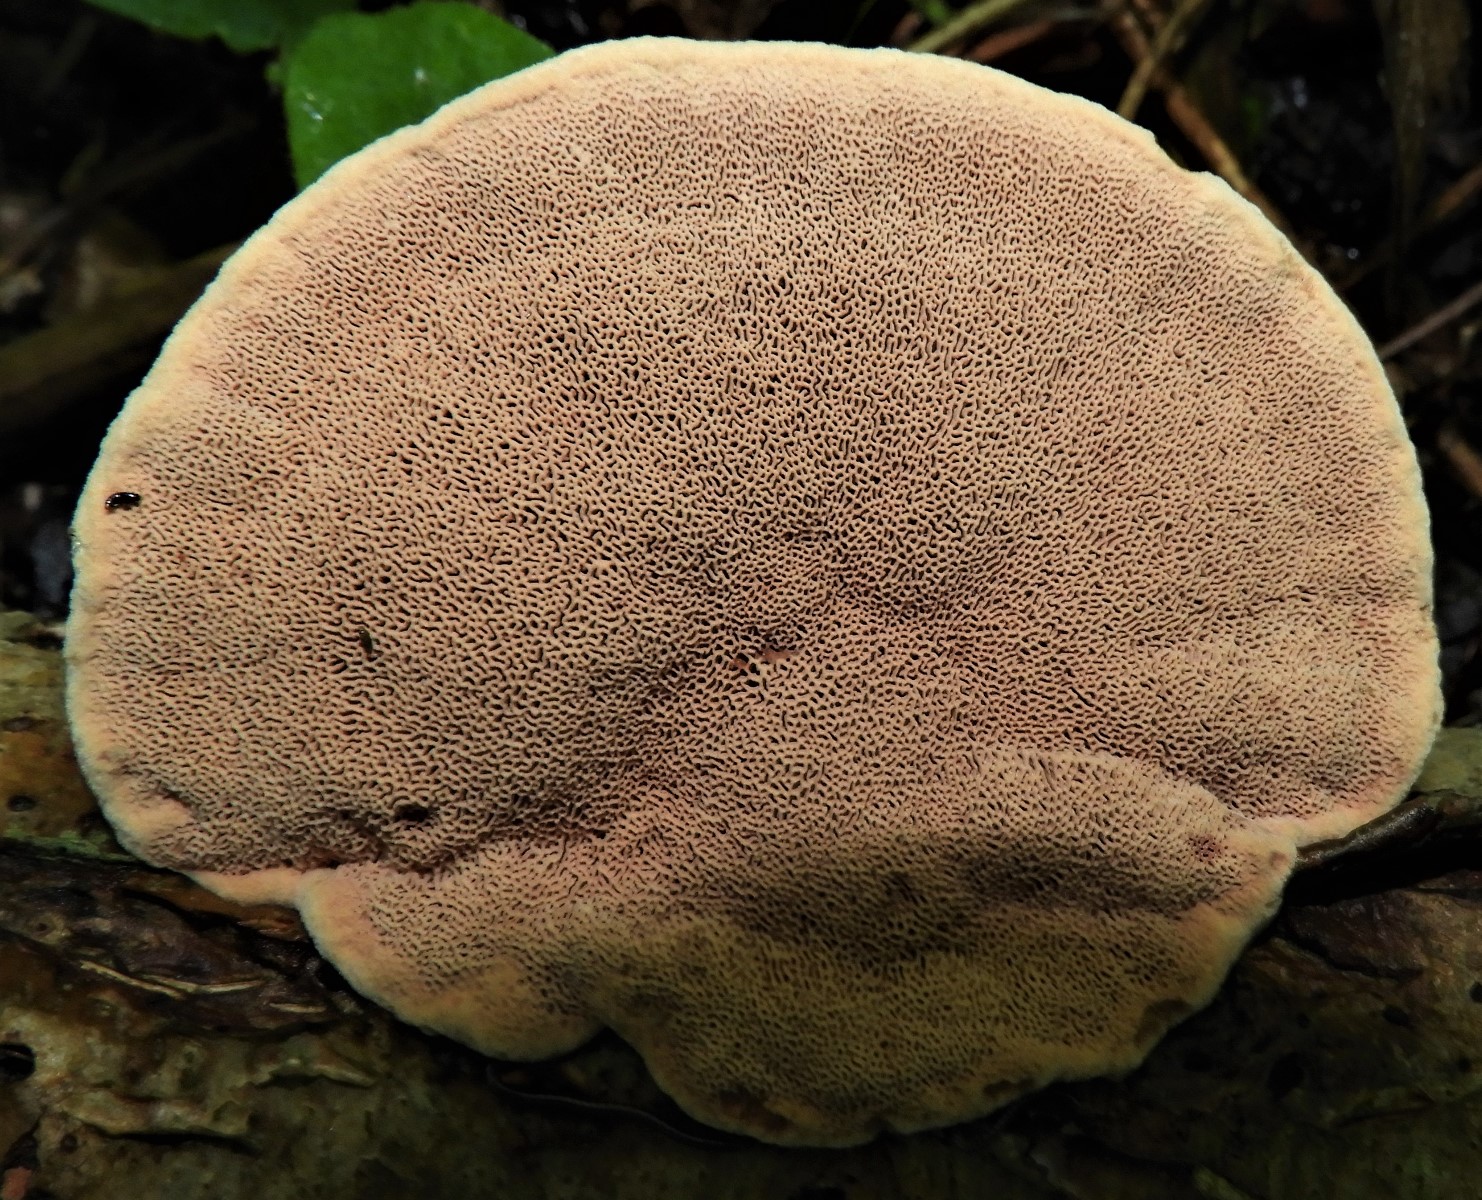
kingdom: Fungi
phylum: Basidiomycota
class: Agaricomycetes
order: Polyporales
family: Phanerochaetaceae
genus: Hapalopilus
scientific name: Hapalopilus rutilans
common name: rødlig okkerporesvamp
